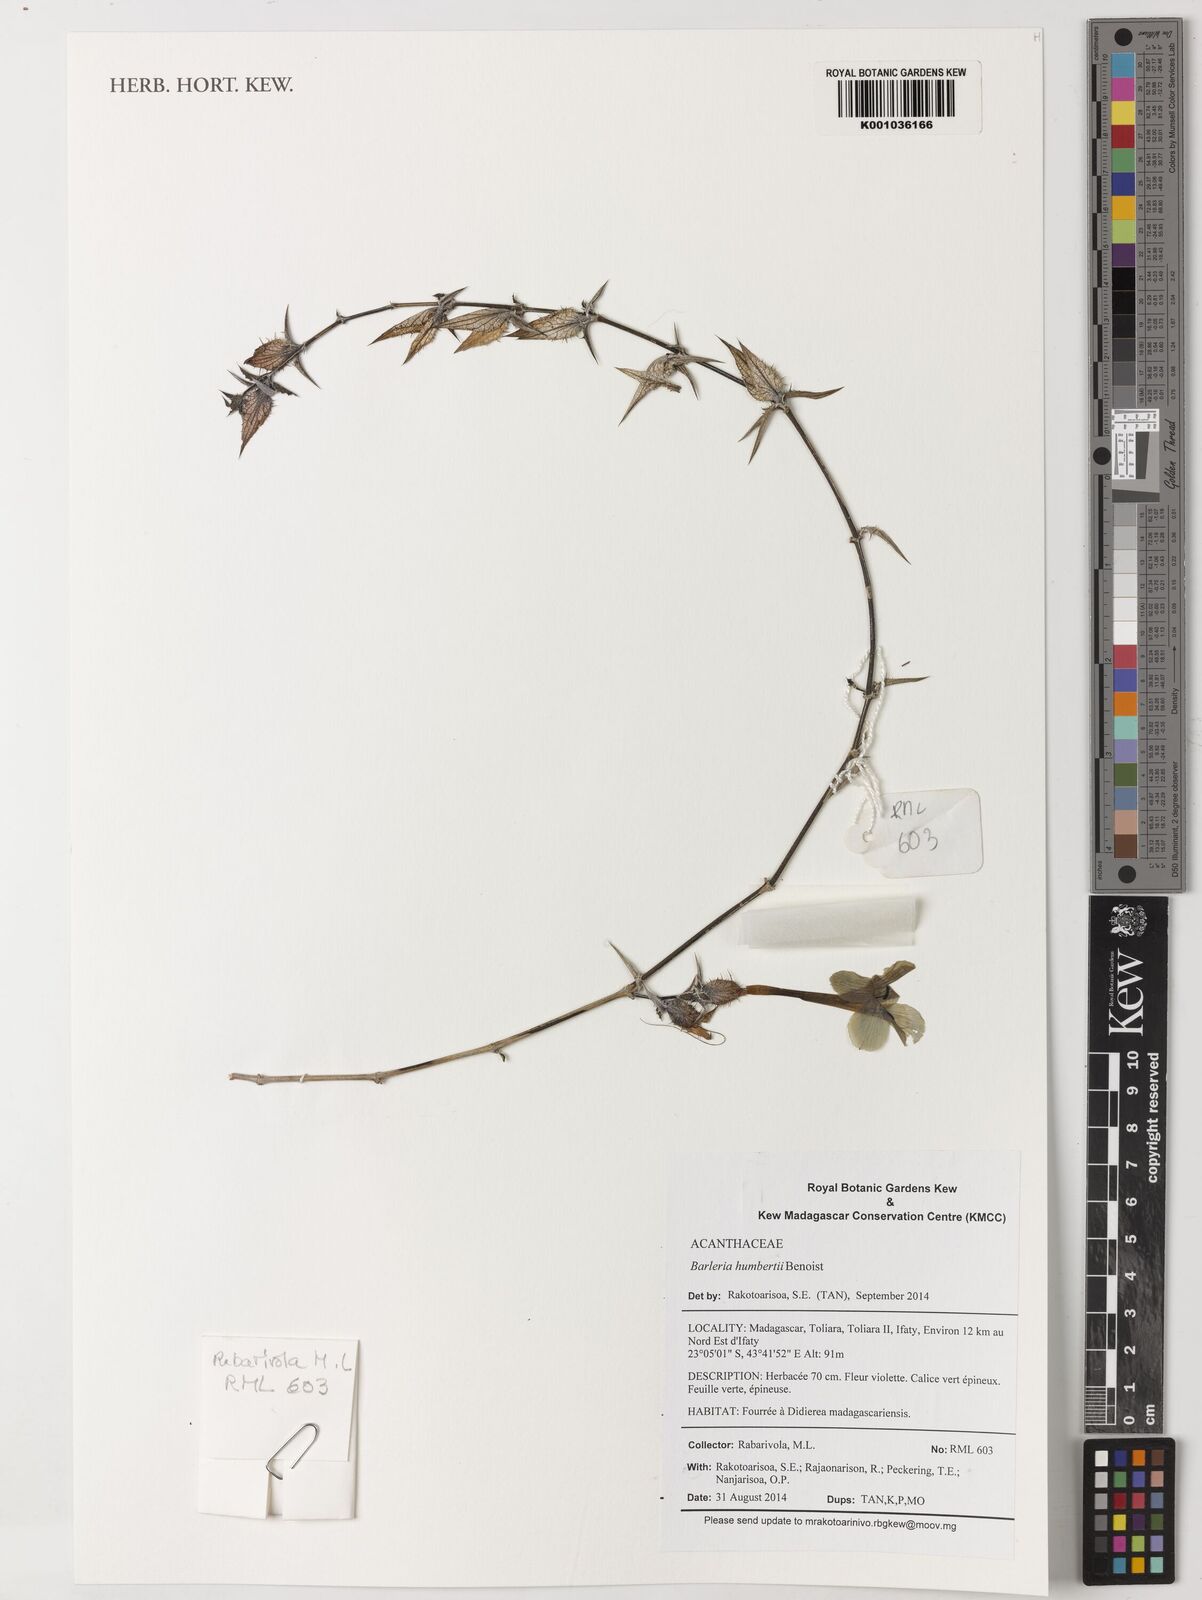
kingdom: Plantae
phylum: Tracheophyta
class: Magnoliopsida
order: Lamiales
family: Acanthaceae
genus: Barleria
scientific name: Barleria humbertii
